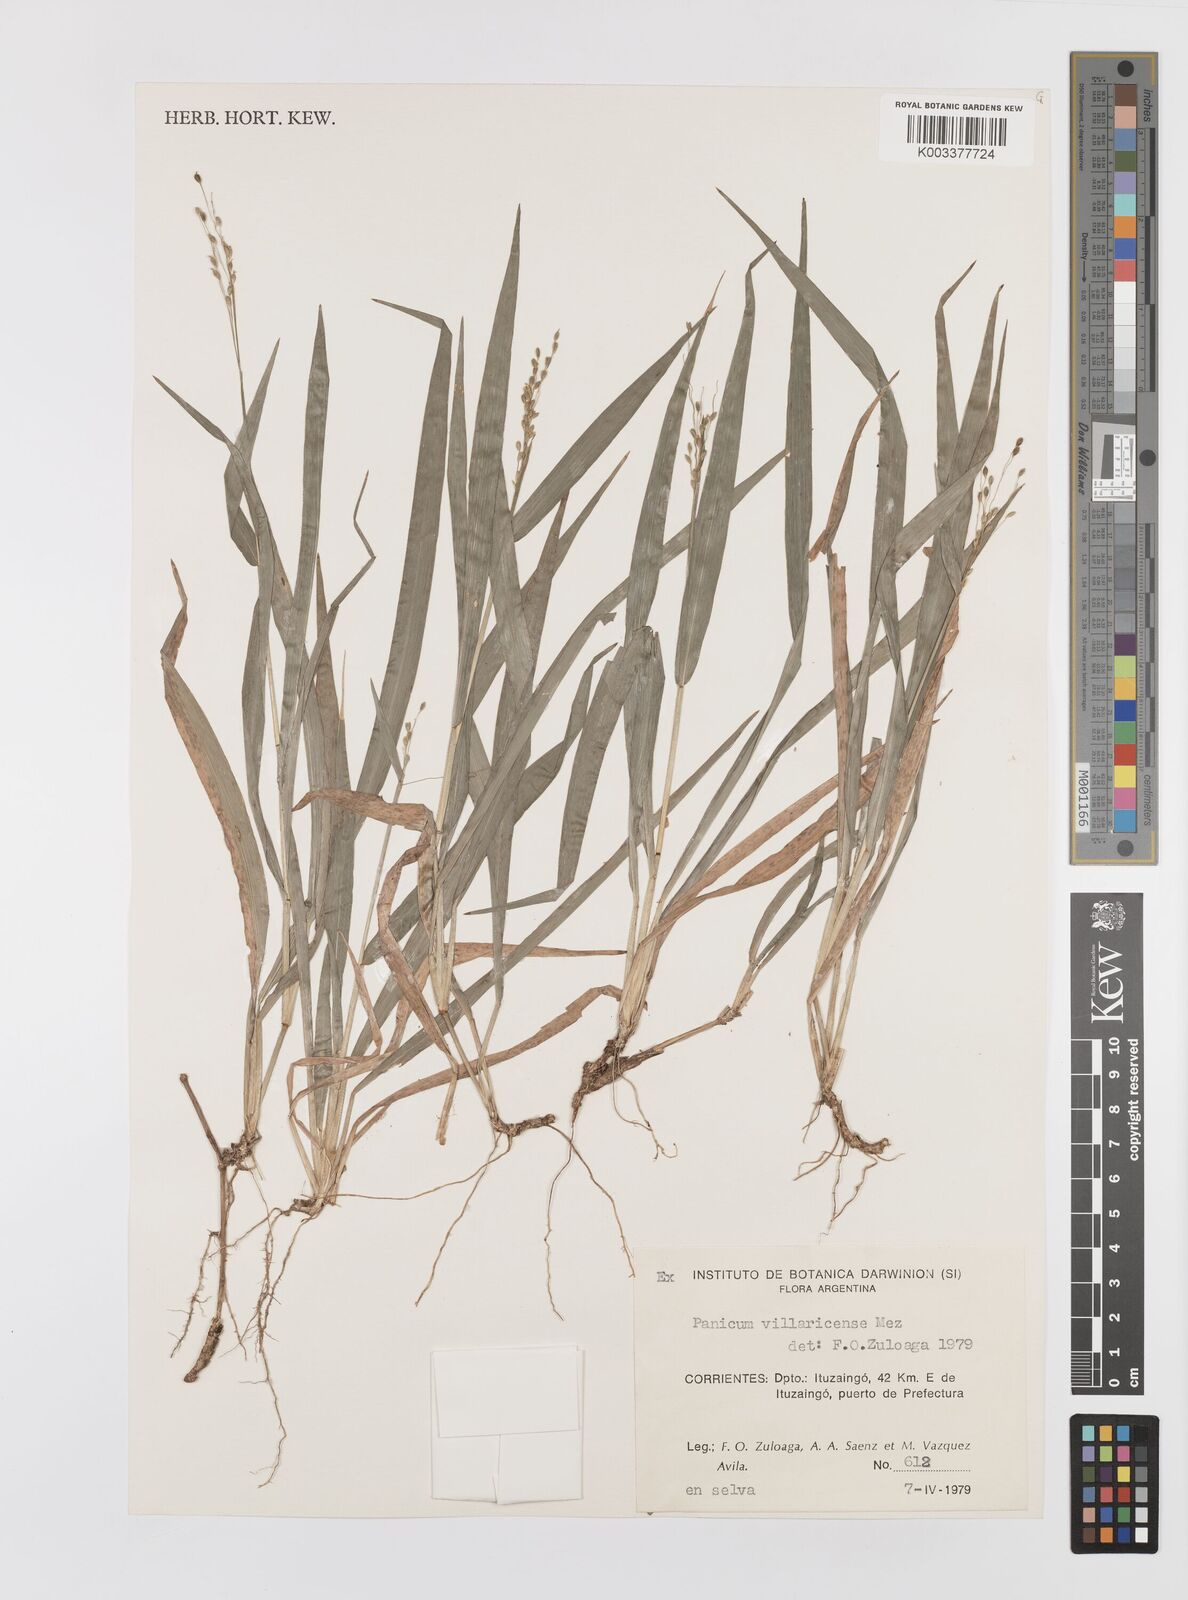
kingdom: Plantae
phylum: Tracheophyta
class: Liliopsida
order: Poales
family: Poaceae
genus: Homolepis
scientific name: Homolepis villaricensis
